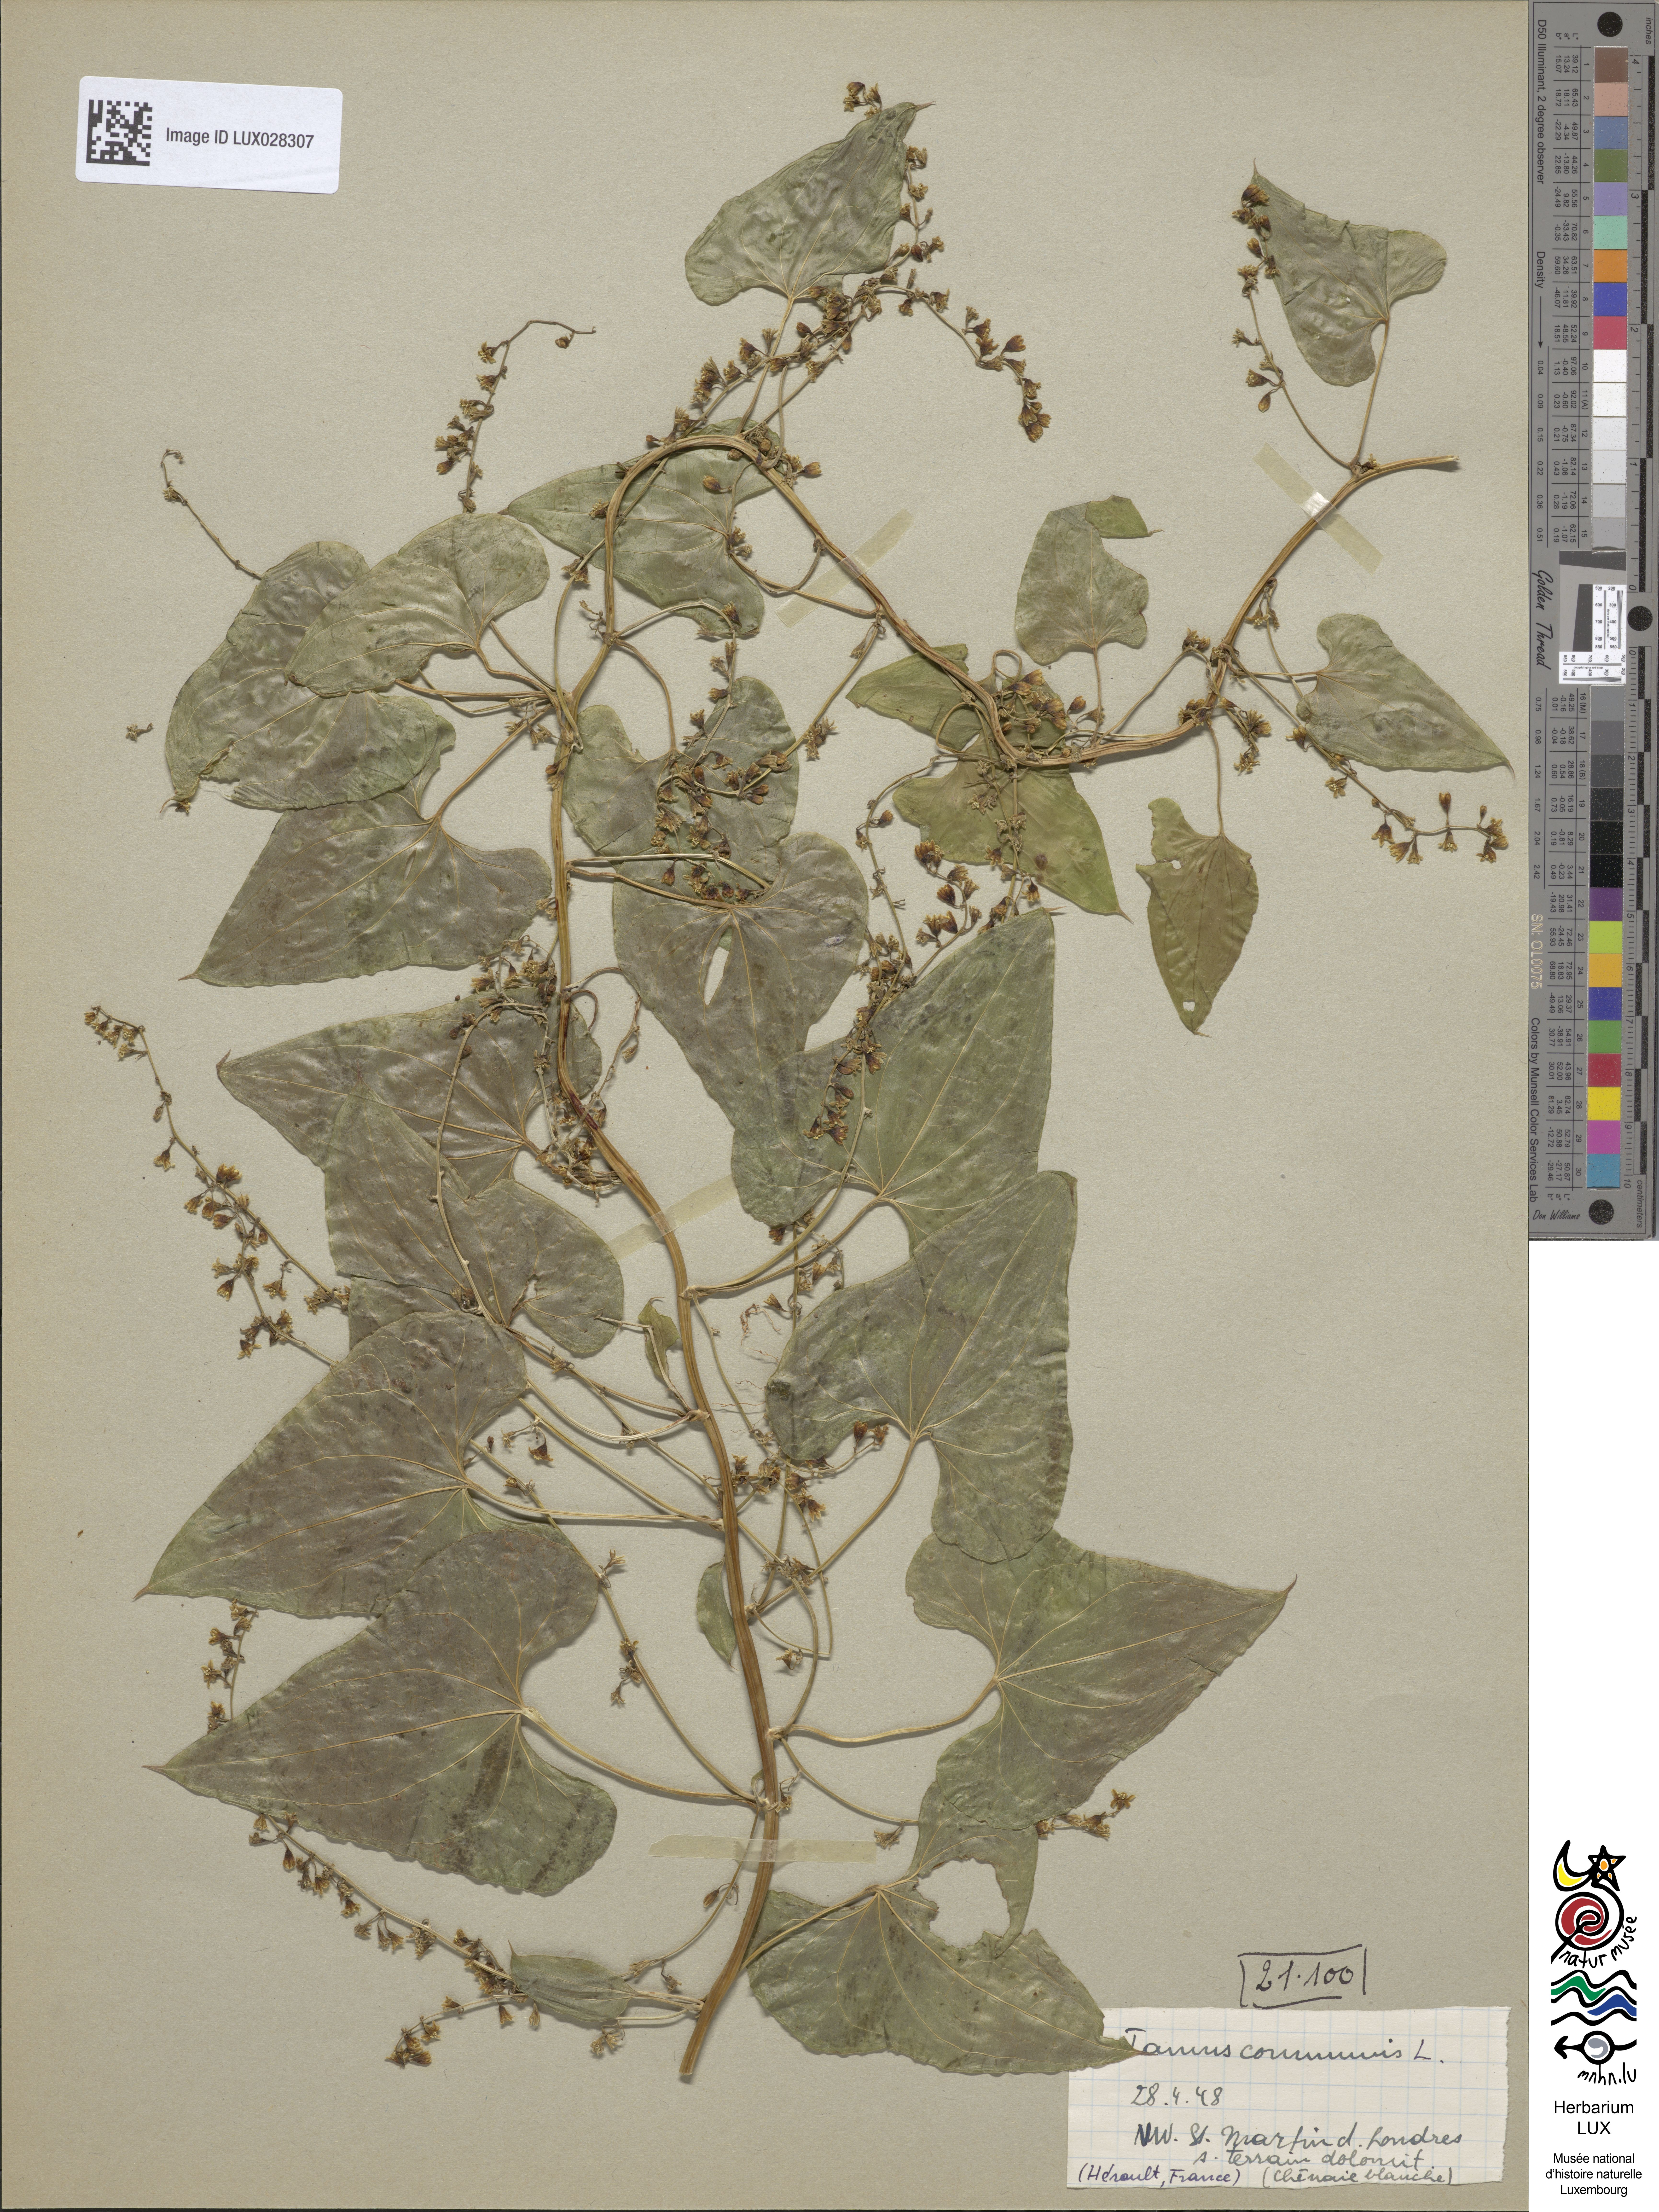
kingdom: Plantae
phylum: Tracheophyta
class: Liliopsida
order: Dioscoreales
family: Dioscoreaceae
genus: Dioscorea
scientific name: Dioscorea communis
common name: Black-bindweed
